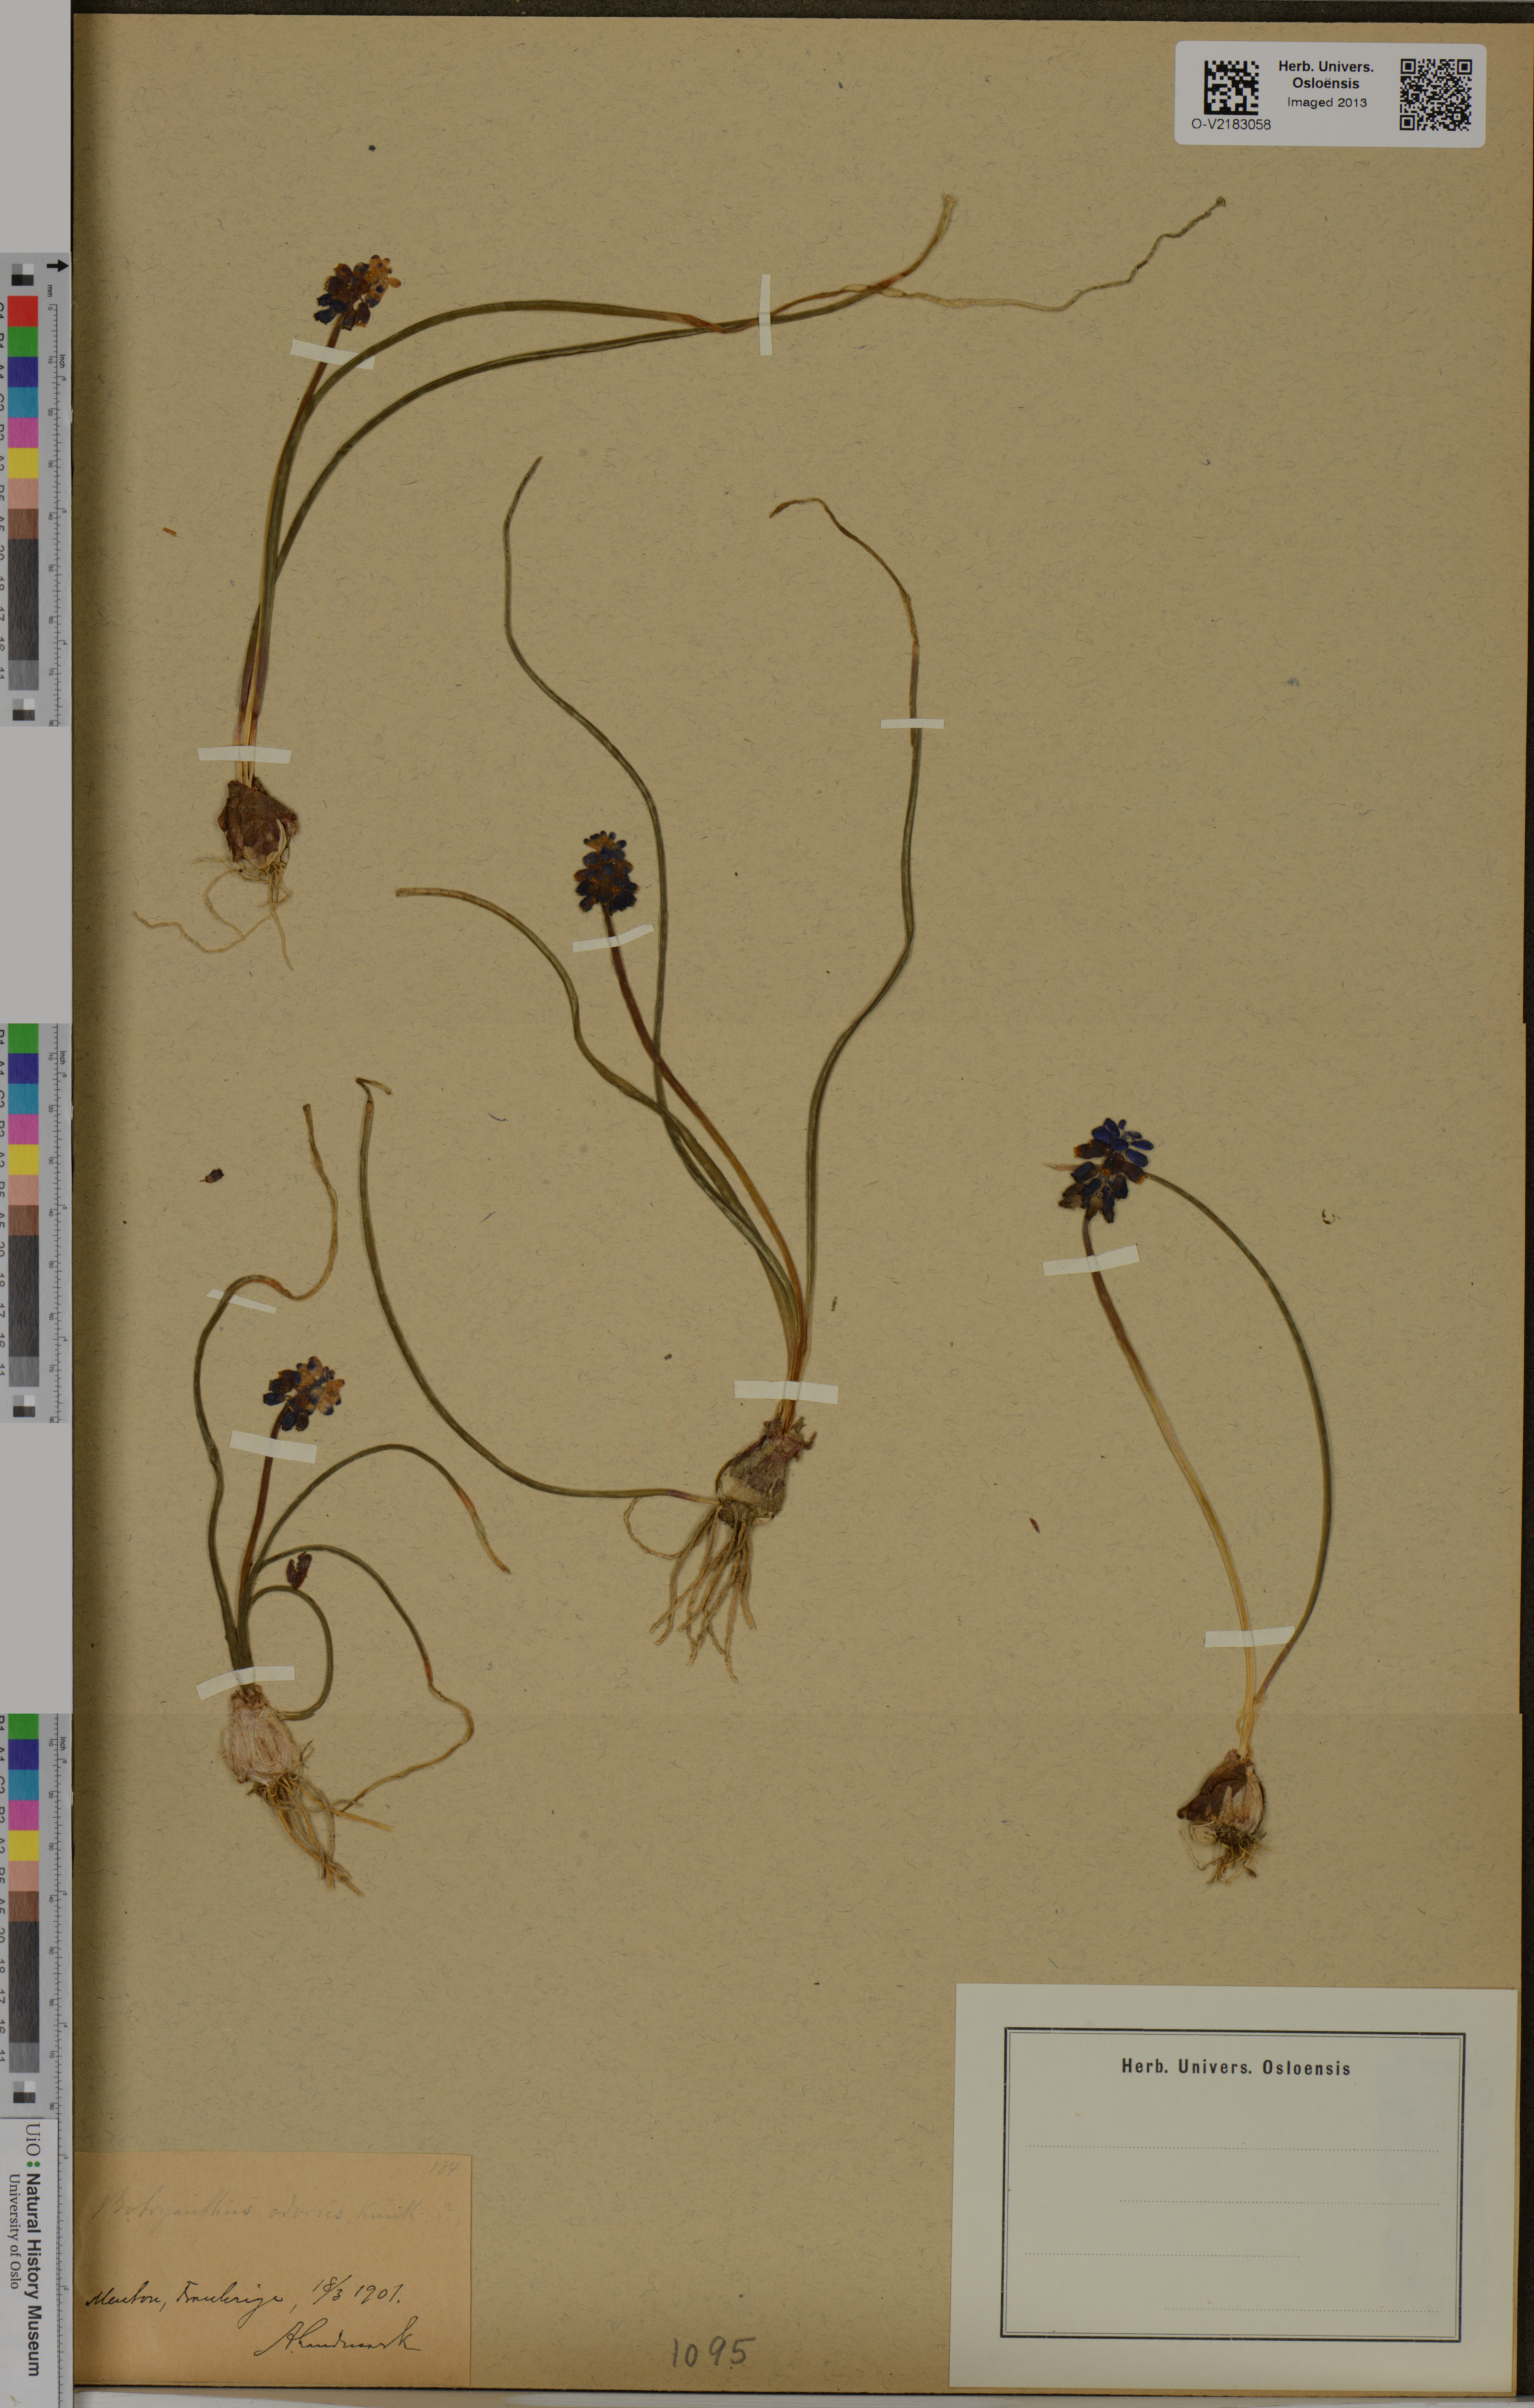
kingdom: Plantae
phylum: Tracheophyta
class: Liliopsida
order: Asparagales
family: Asparagaceae
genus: Muscari
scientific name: Muscari neglectum
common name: Grape-hyacinth
